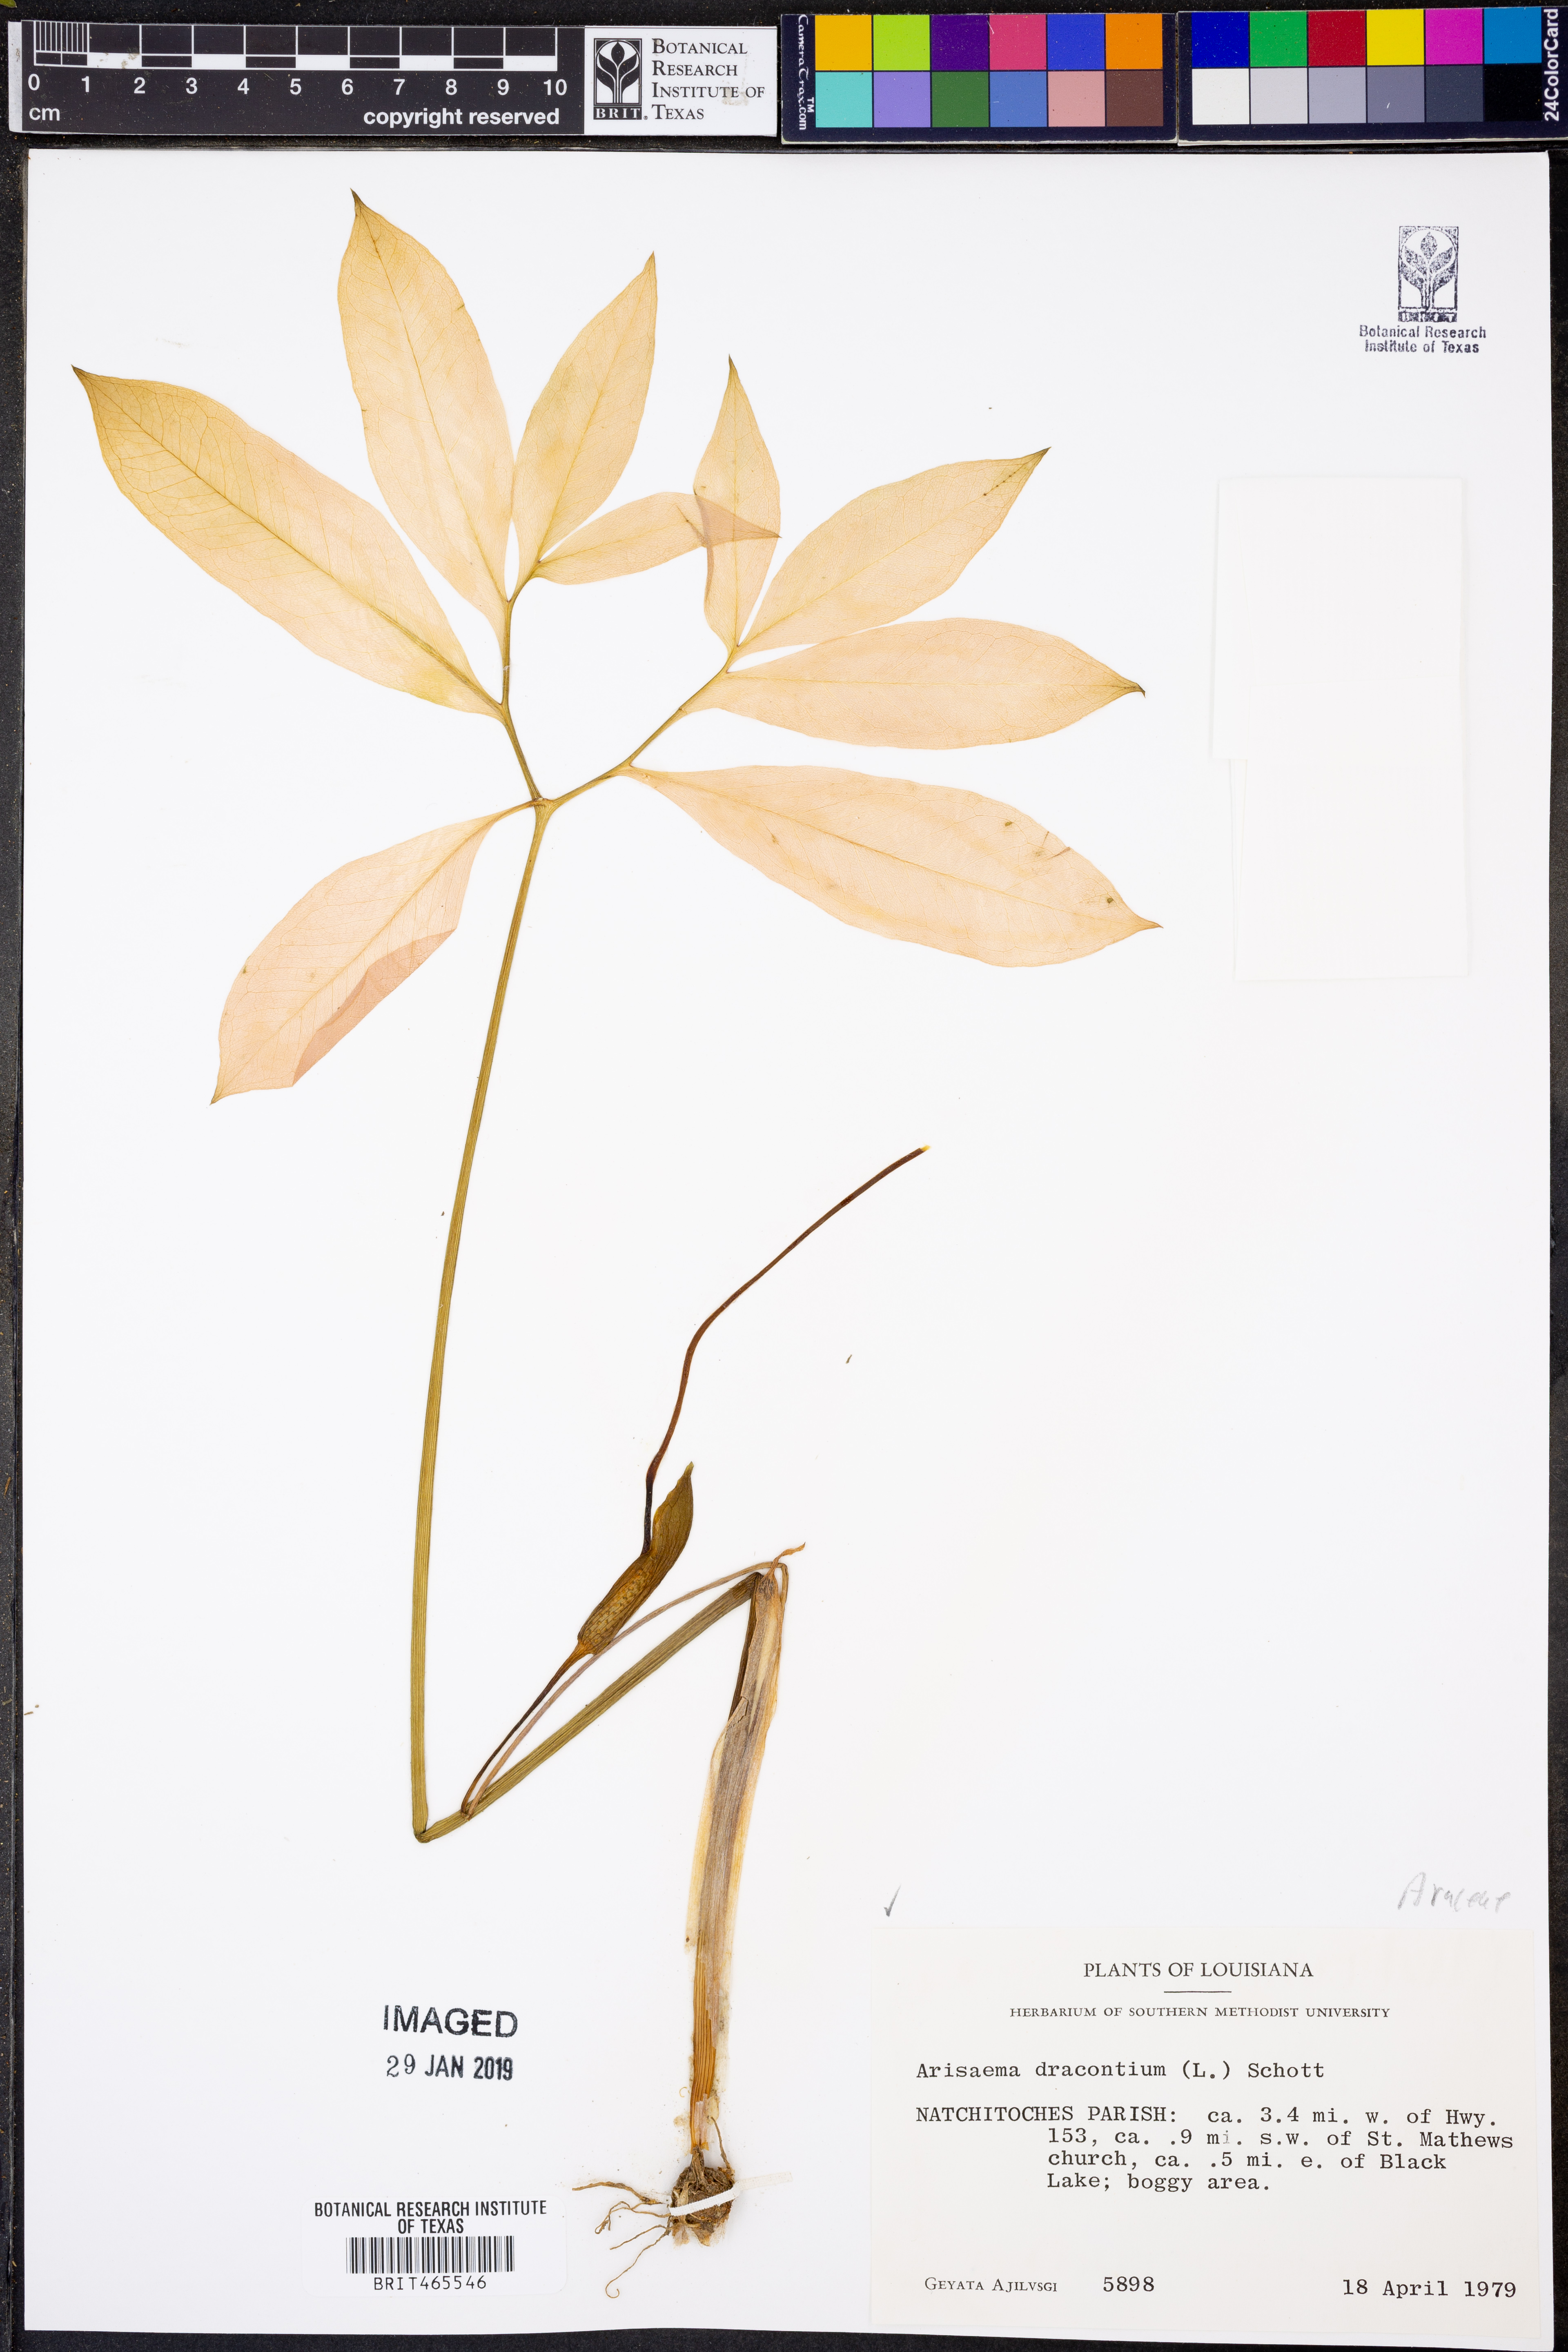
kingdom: Plantae
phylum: Tracheophyta
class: Liliopsida
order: Alismatales
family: Araceae
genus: Arisaema
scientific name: Arisaema dracontium
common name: Dragon-arum
